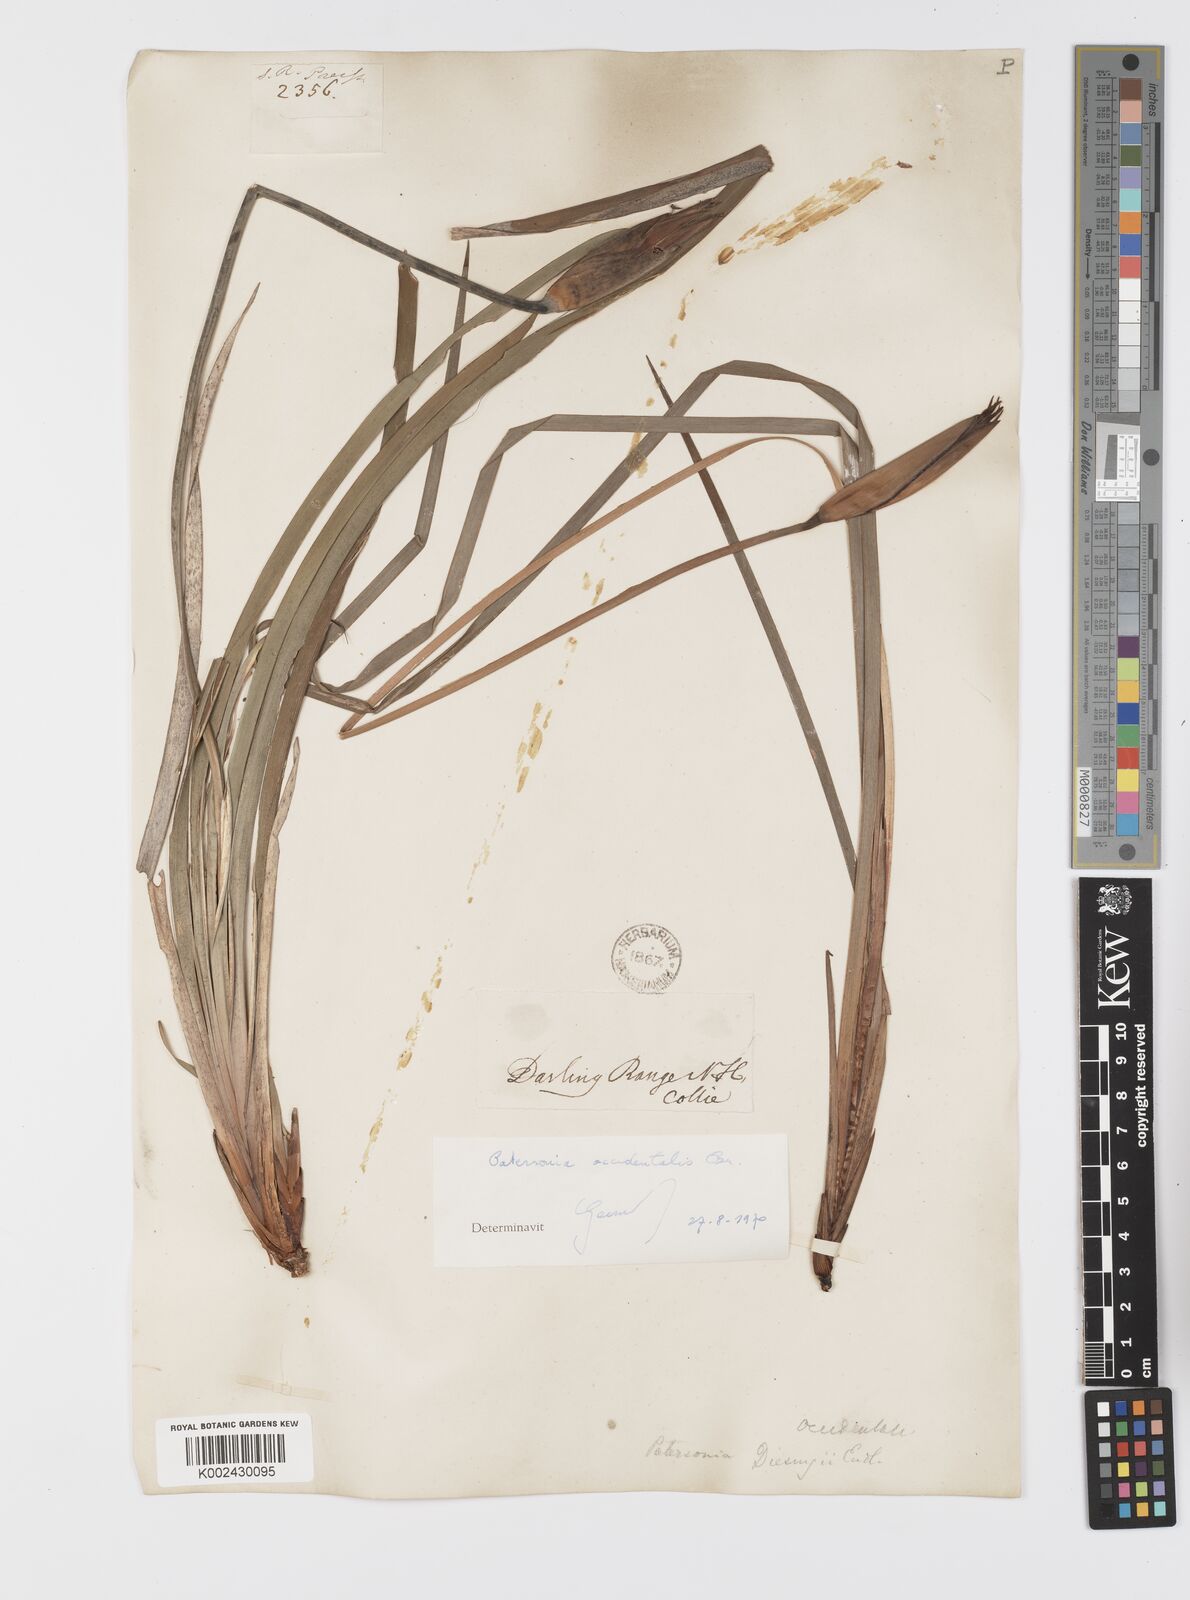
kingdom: Plantae
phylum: Tracheophyta
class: Liliopsida
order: Asparagales
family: Iridaceae
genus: Patersonia
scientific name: Patersonia occidentalis
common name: Long purple-flag
